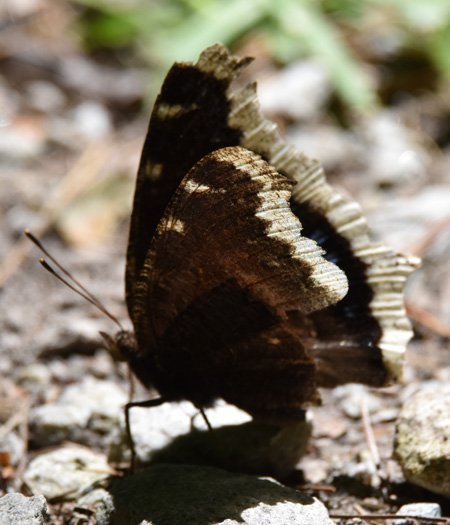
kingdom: Animalia
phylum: Arthropoda
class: Insecta
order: Lepidoptera
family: Nymphalidae
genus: Nymphalis
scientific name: Nymphalis antiopa
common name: Mourning Cloak
